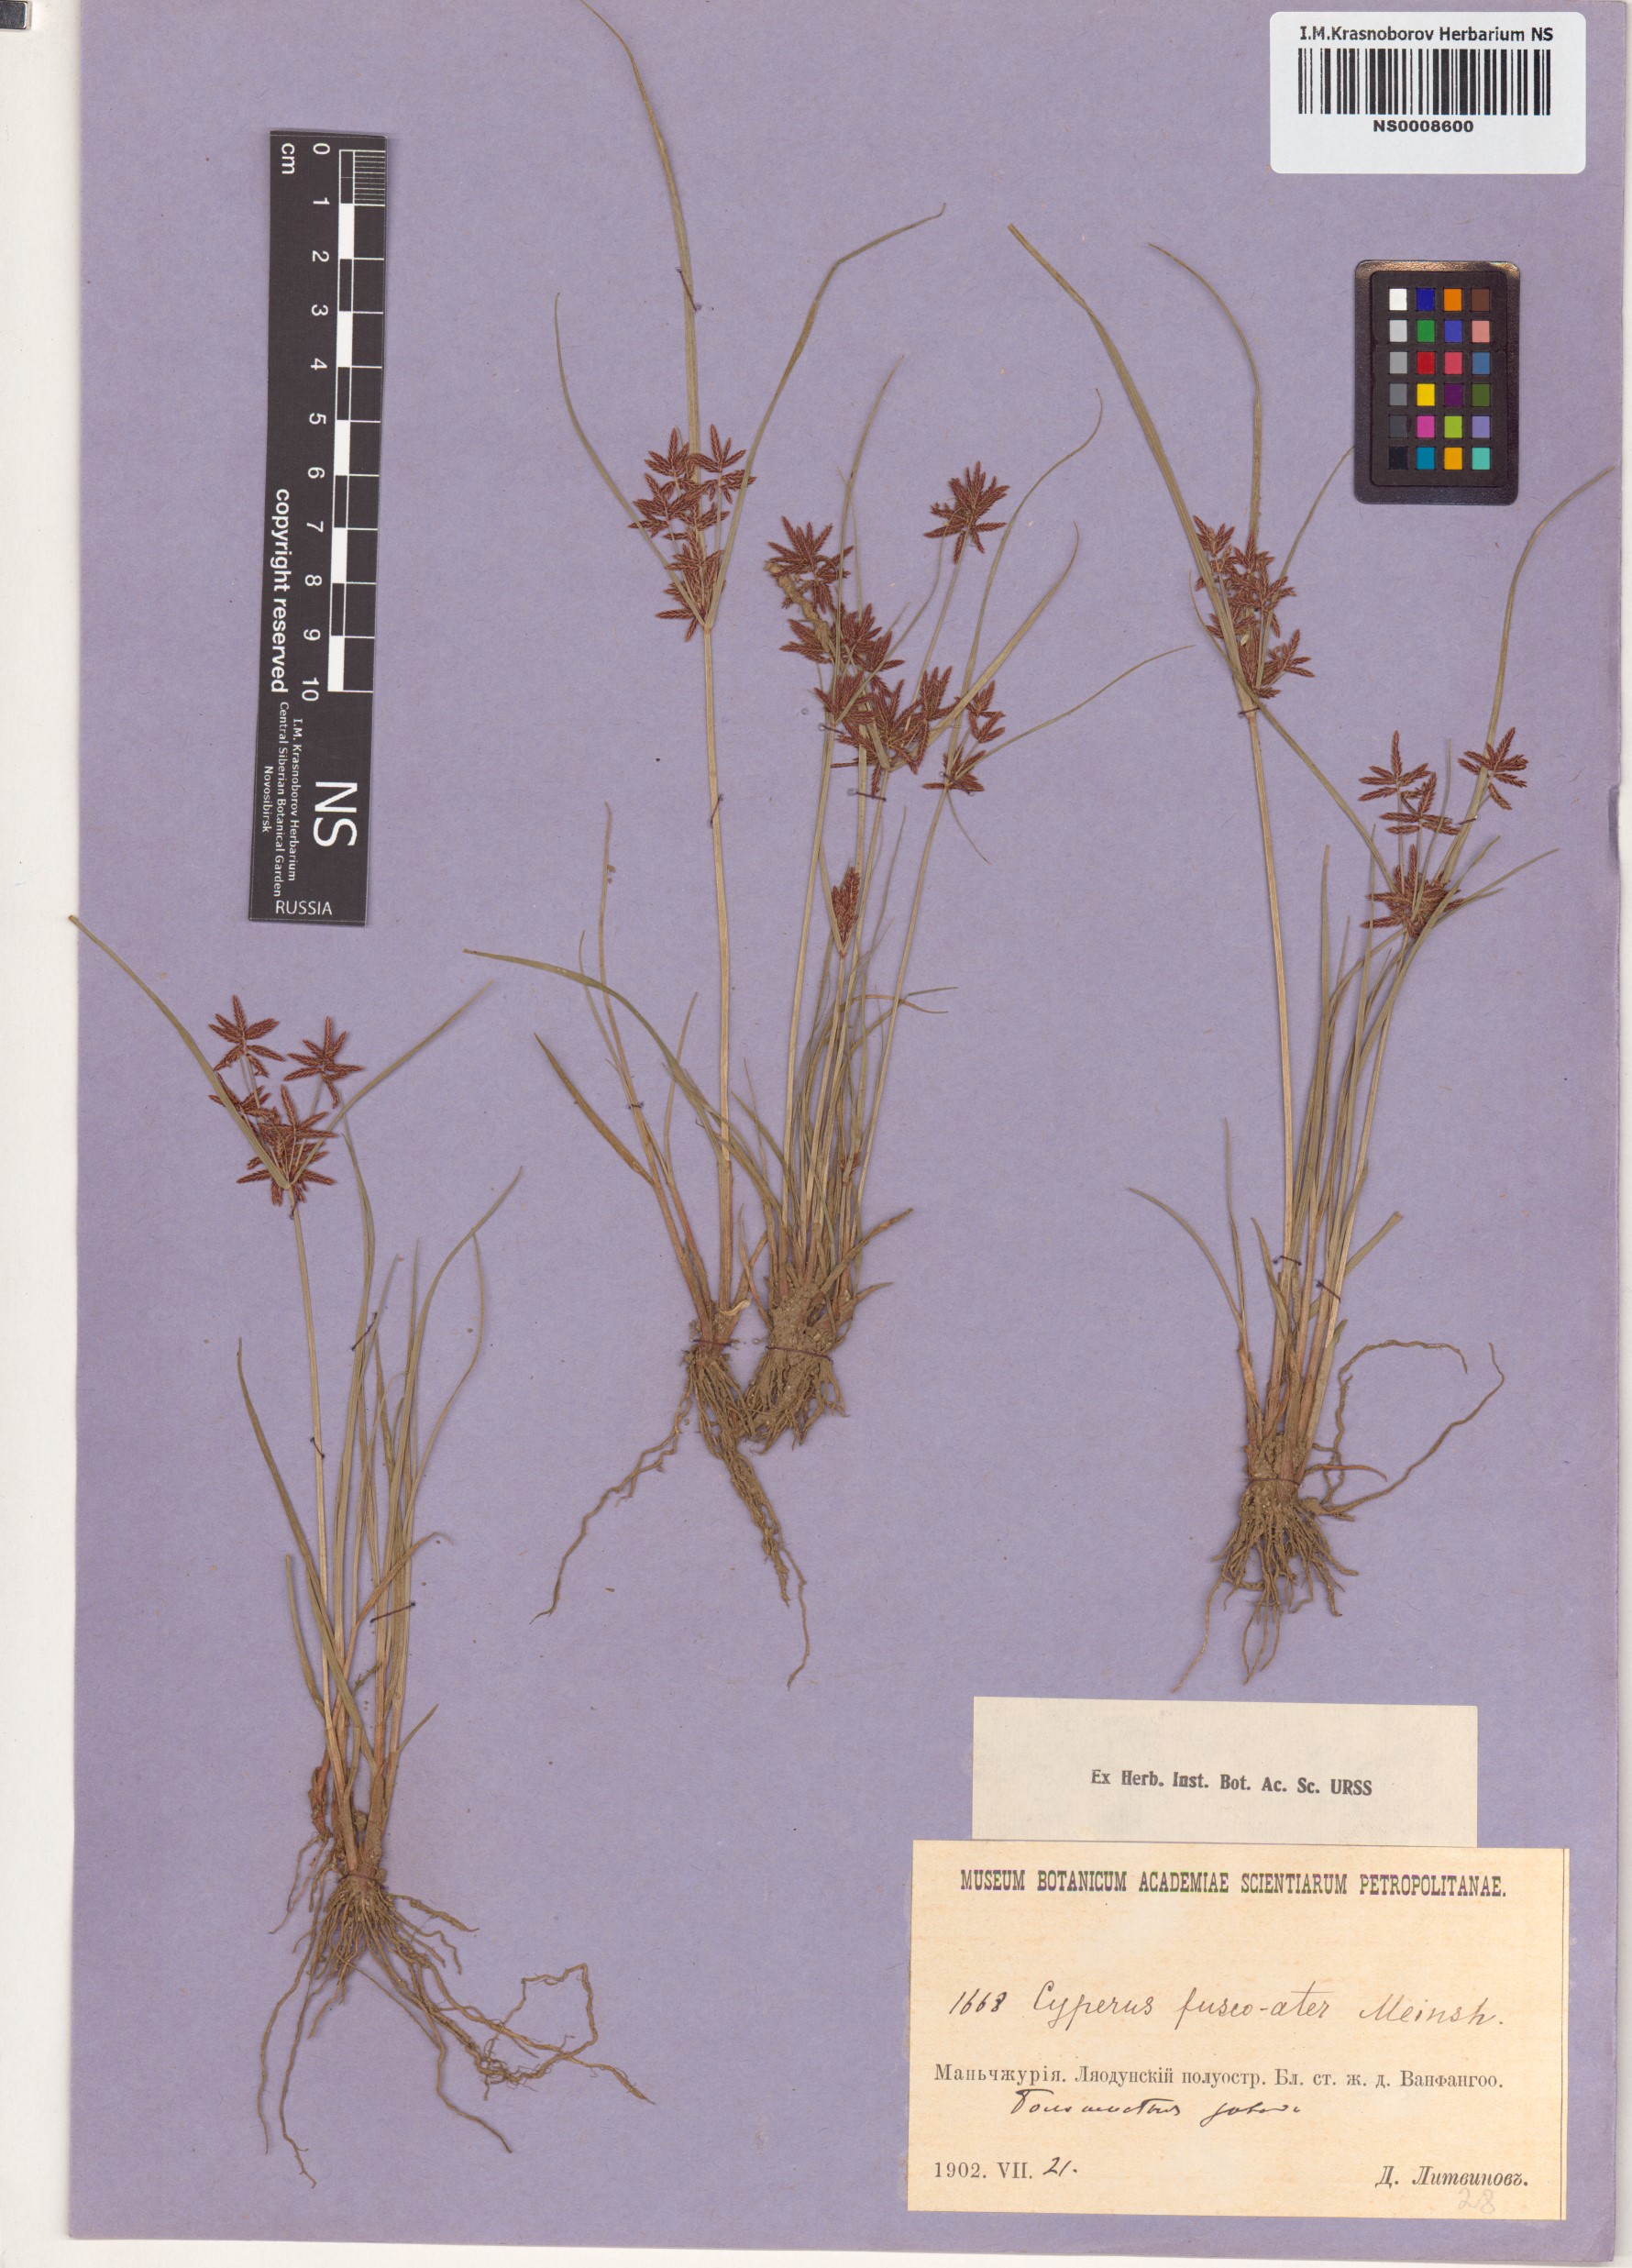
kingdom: Plantae
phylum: Tracheophyta
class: Liliopsida
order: Poales
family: Cyperaceae
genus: Cyperus
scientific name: Cyperus flavidus
